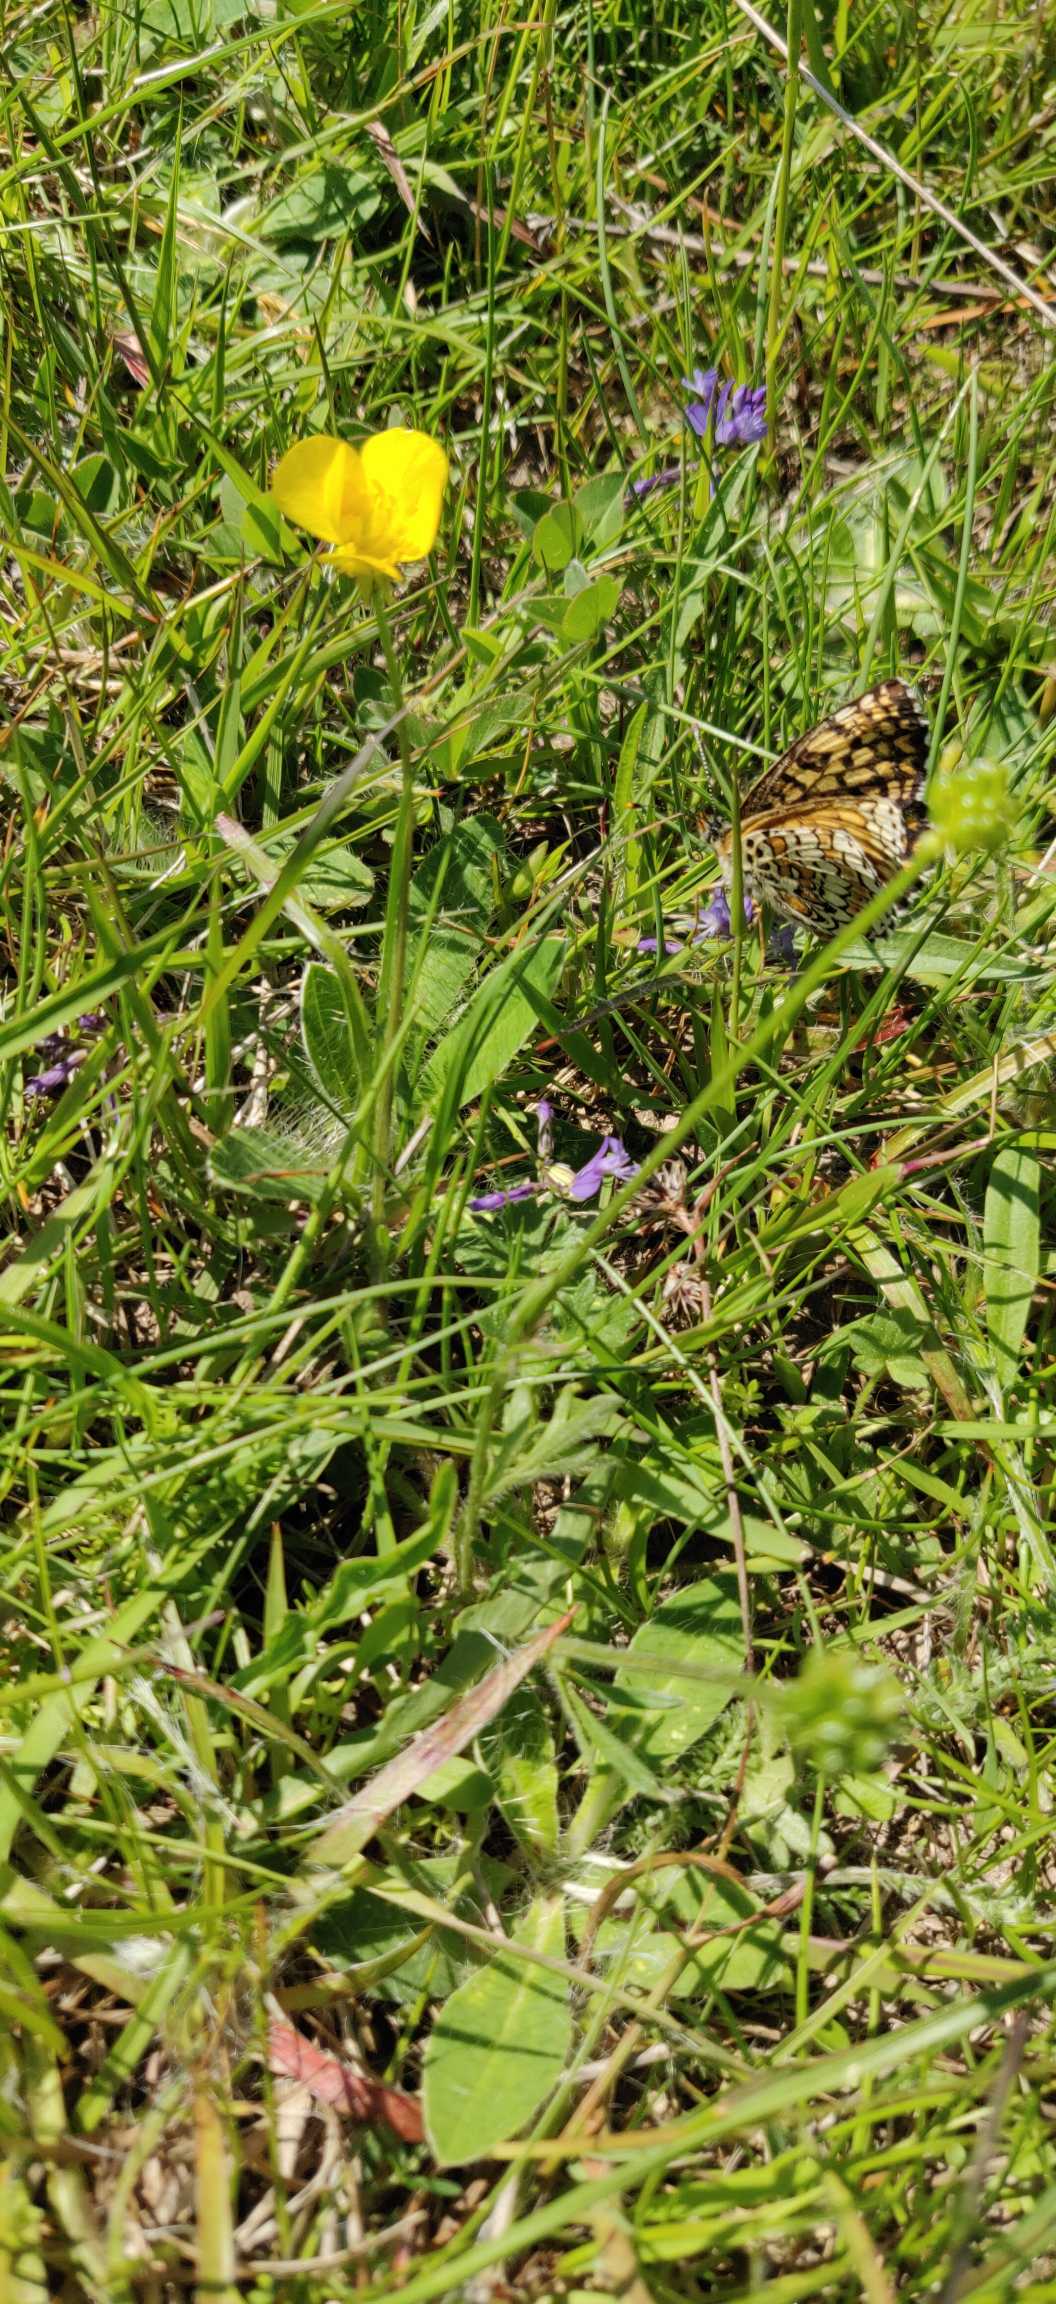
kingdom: Animalia
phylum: Arthropoda
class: Insecta
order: Lepidoptera
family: Nymphalidae
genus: Melitaea
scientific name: Melitaea cinxia
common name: Okkergul pletvinge
